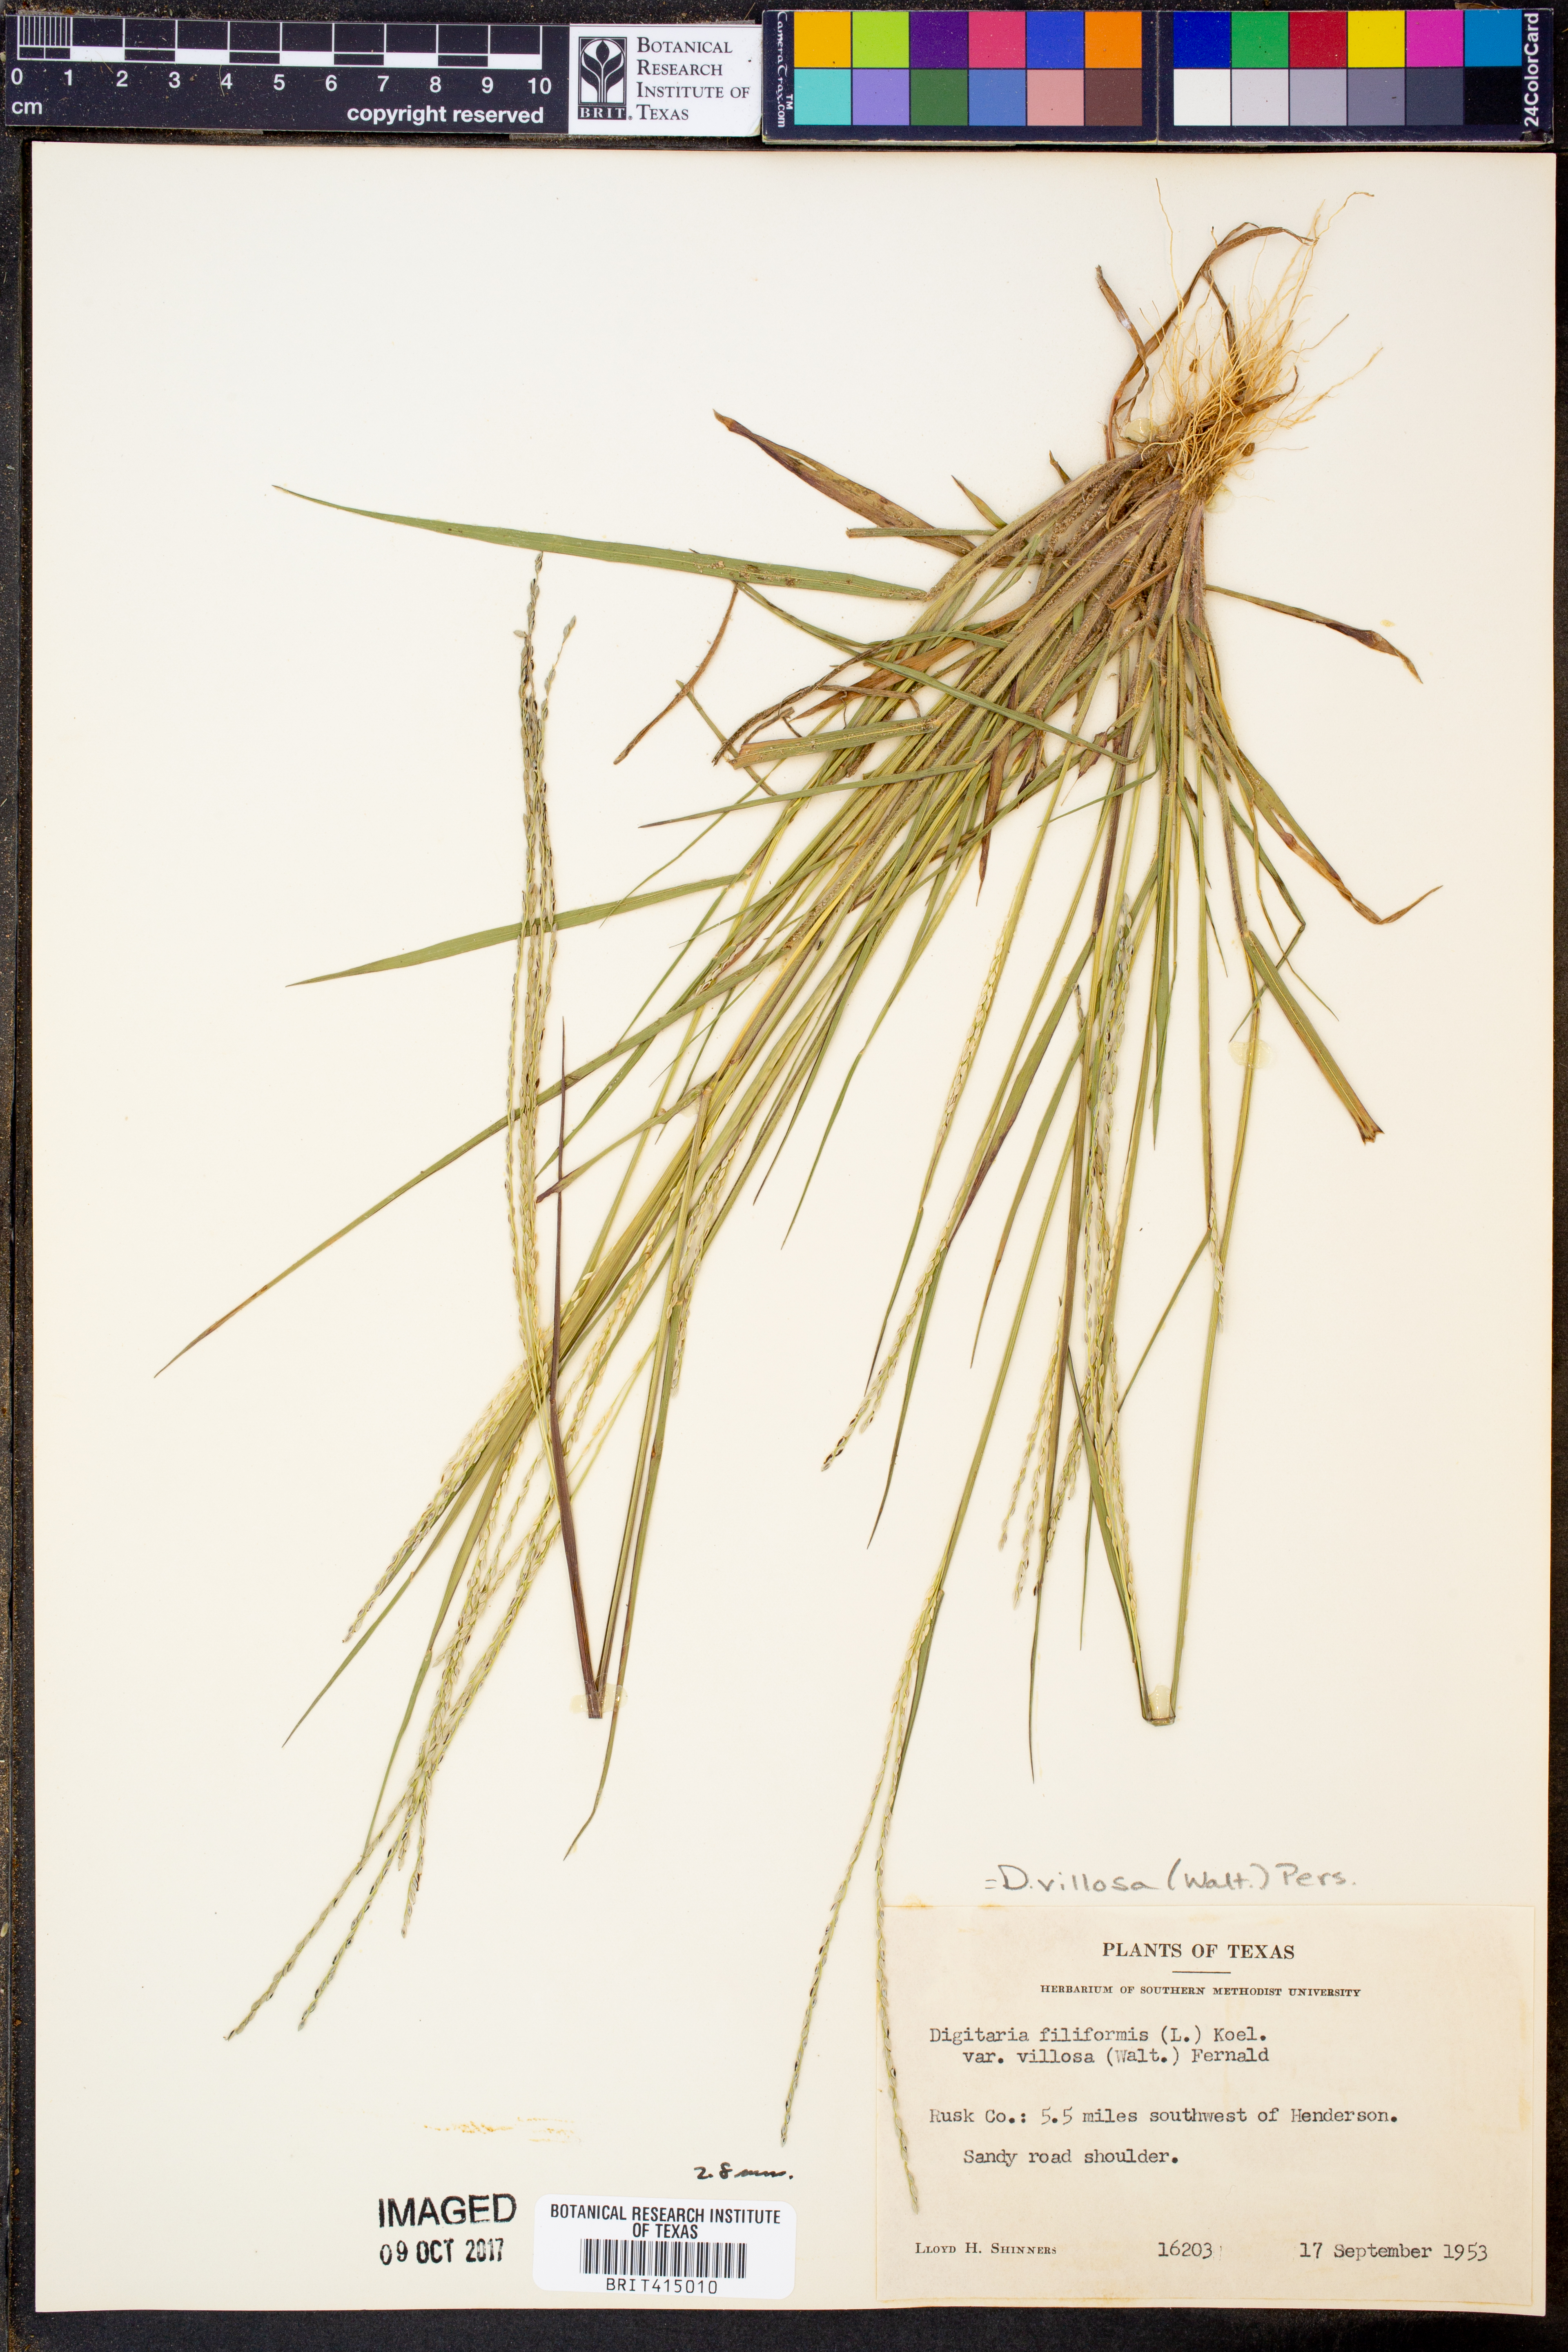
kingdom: Plantae
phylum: Tracheophyta
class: Liliopsida
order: Poales
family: Poaceae
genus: Digitaria
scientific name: Digitaria villosa
